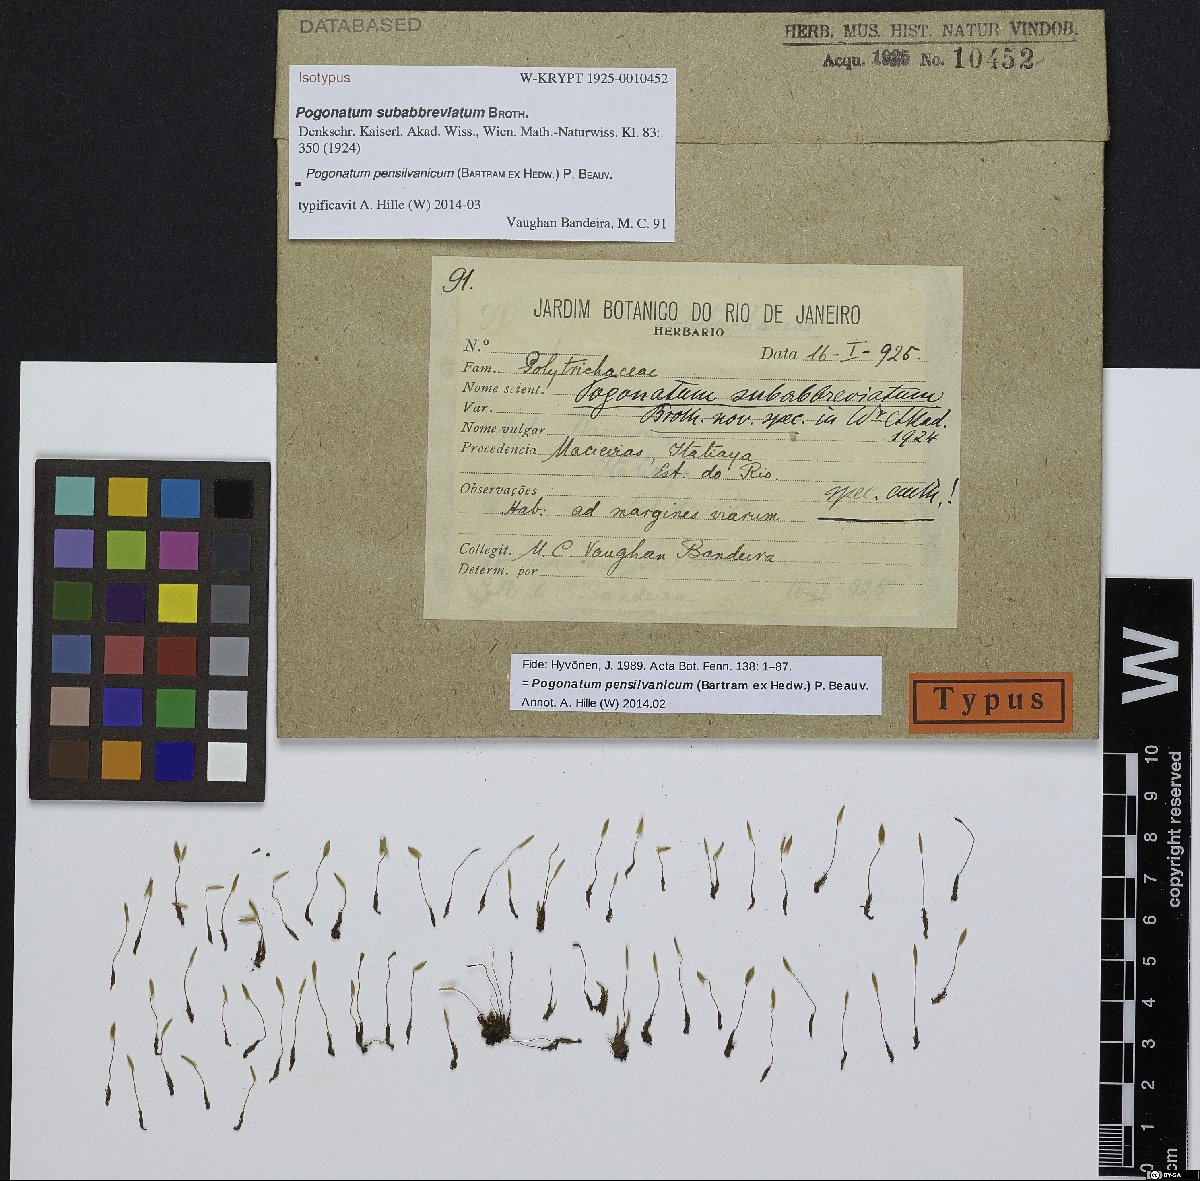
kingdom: Plantae
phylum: Bryophyta
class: Polytrichopsida
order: Polytrichales
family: Polytrichaceae
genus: Pogonatum
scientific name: Pogonatum pensilvanicum
